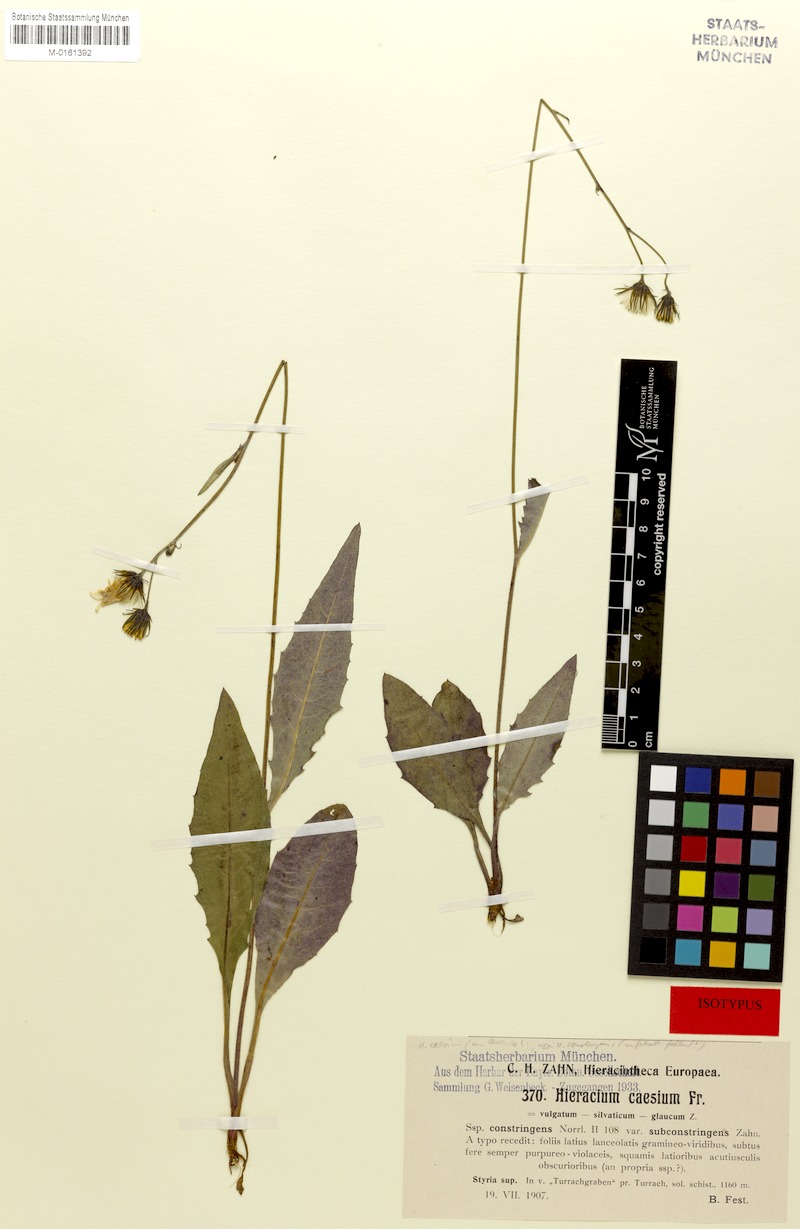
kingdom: Plantae
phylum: Tracheophyta
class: Magnoliopsida
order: Asterales
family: Asteraceae
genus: Hieracium
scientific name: Hieracium caesium
